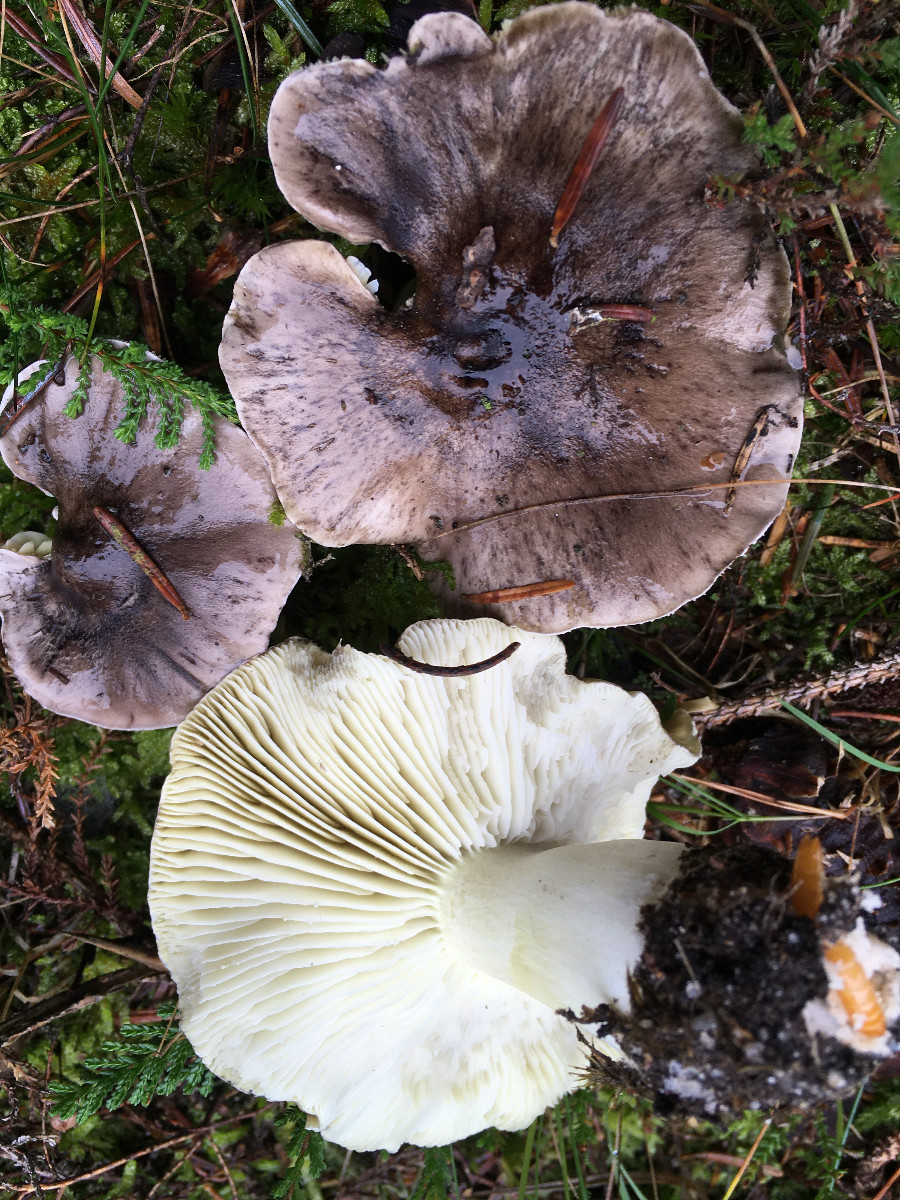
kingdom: Fungi
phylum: Basidiomycota
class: Agaricomycetes
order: Agaricales
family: Tricholomataceae
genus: Tricholoma
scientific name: Tricholoma portentosum
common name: grå ridderhat
